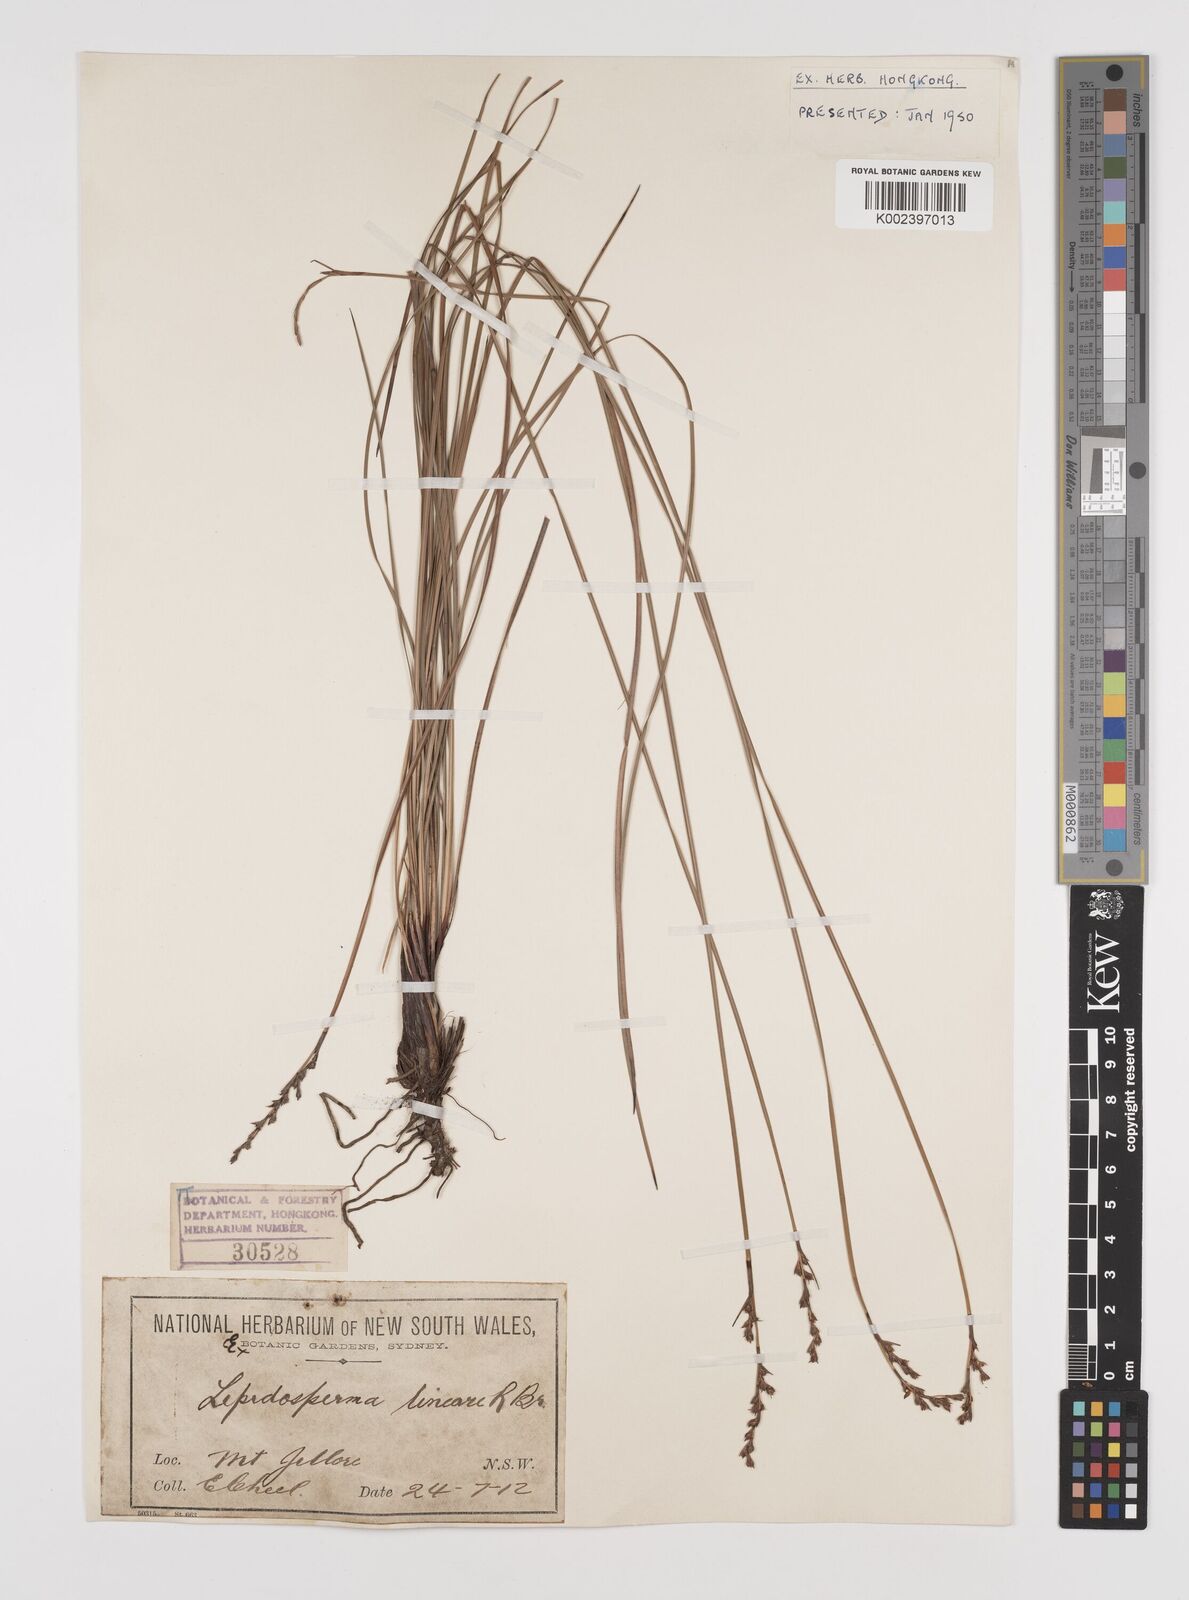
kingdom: Plantae
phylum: Tracheophyta
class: Liliopsida
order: Poales
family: Cyperaceae
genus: Lepidosperma
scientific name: Lepidosperma lineare
